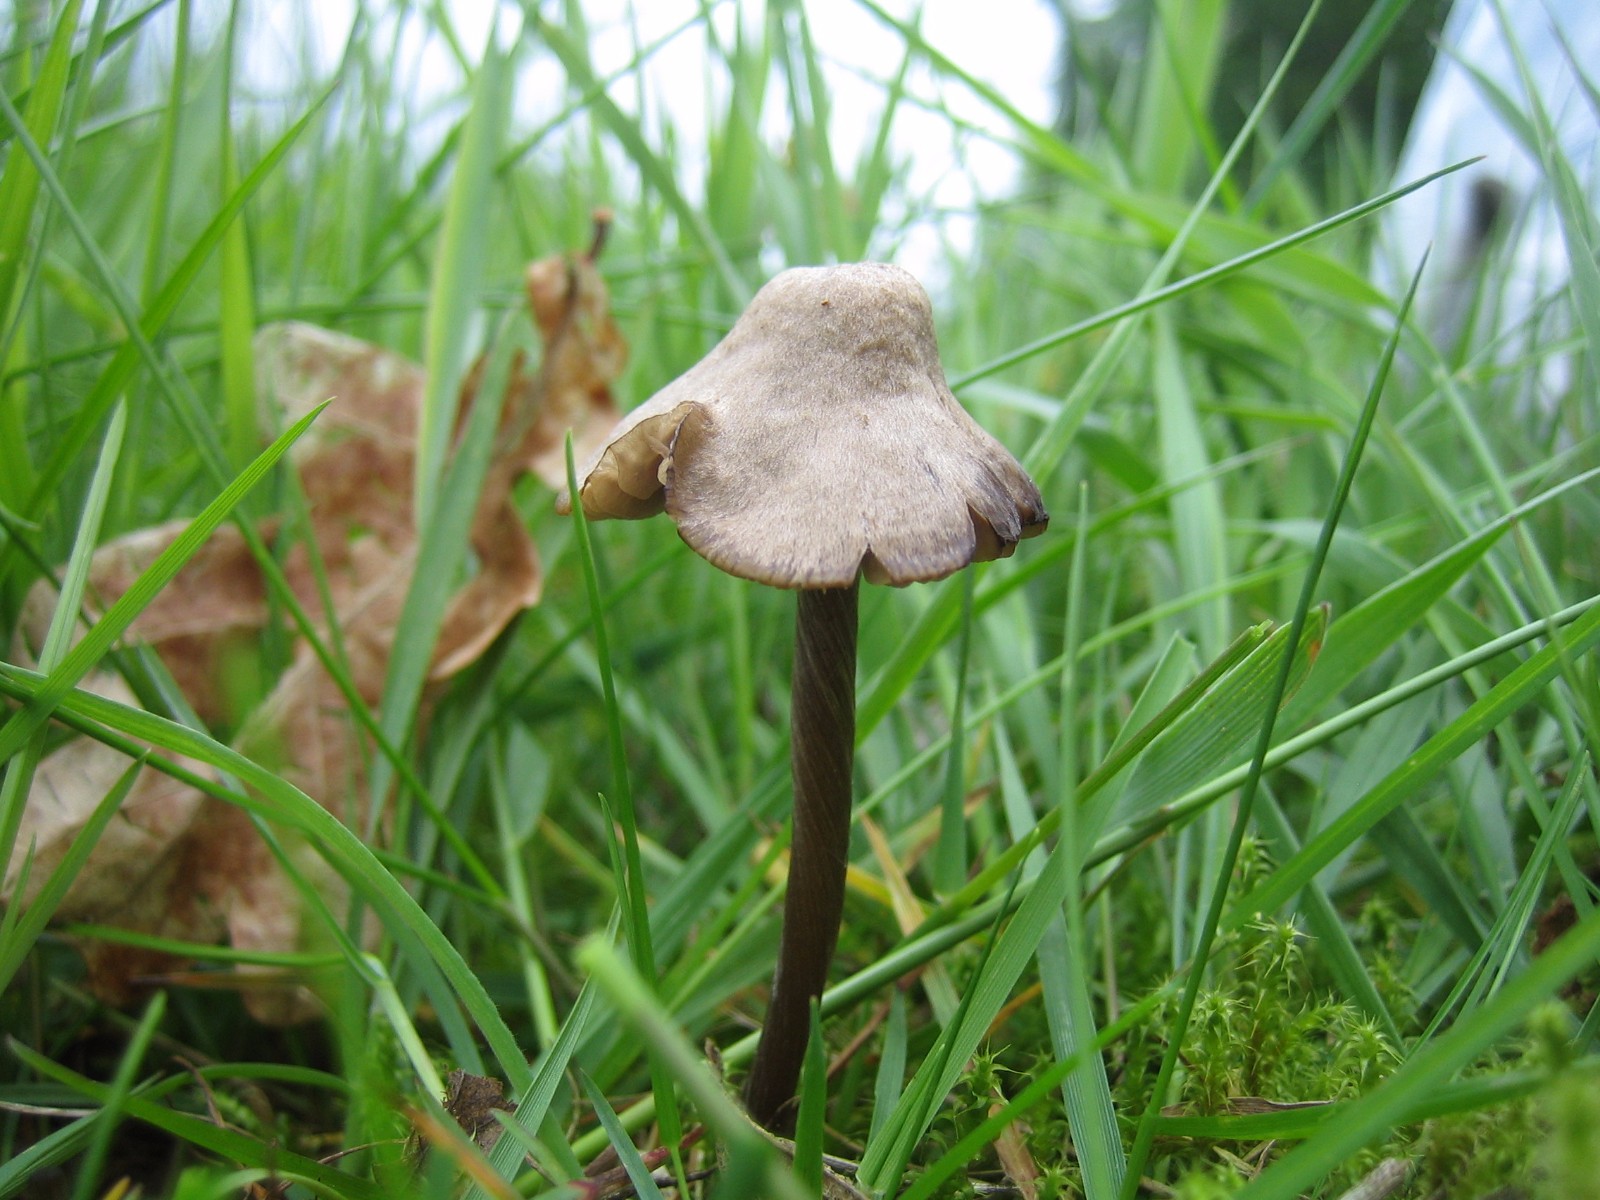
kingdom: Fungi
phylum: Basidiomycota
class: Agaricomycetes
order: Agaricales
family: Entolomataceae
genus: Entoloma
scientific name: Entoloma
